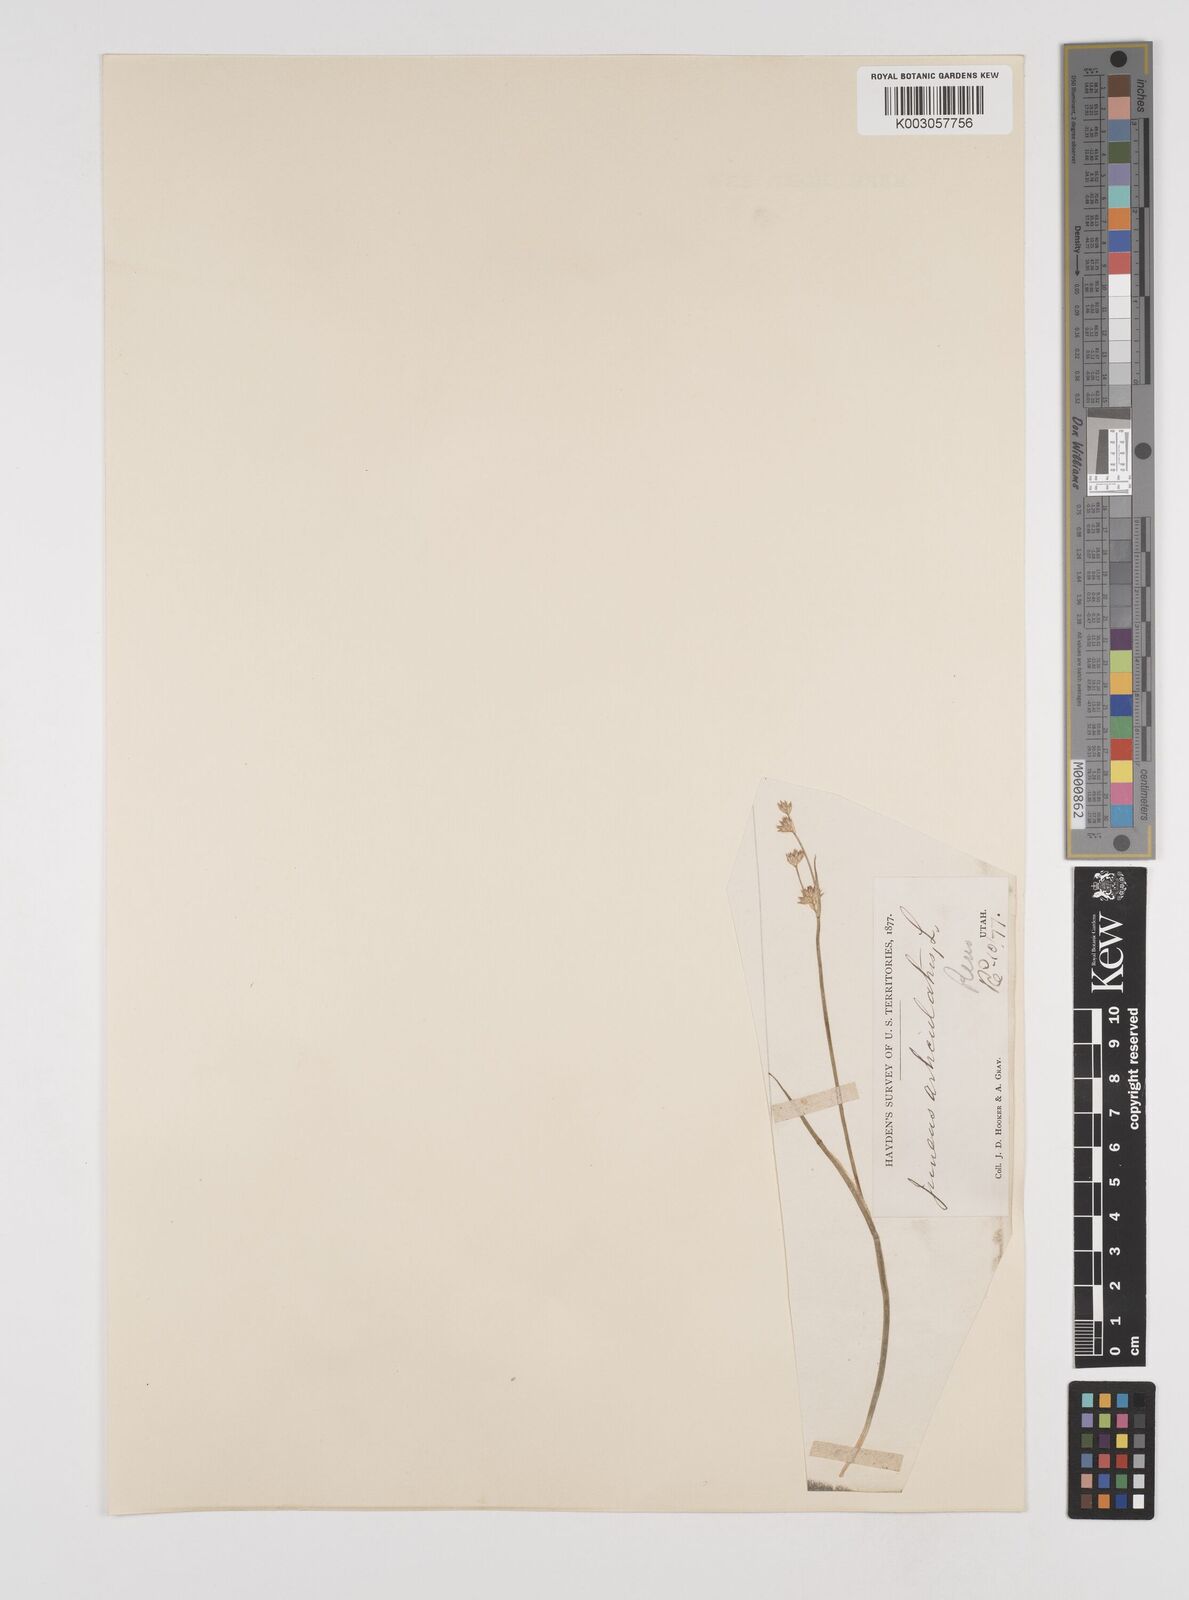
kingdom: Plantae
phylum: Tracheophyta
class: Liliopsida
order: Poales
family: Juncaceae
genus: Juncus
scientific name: Juncus articulatus
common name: Jointed rush
